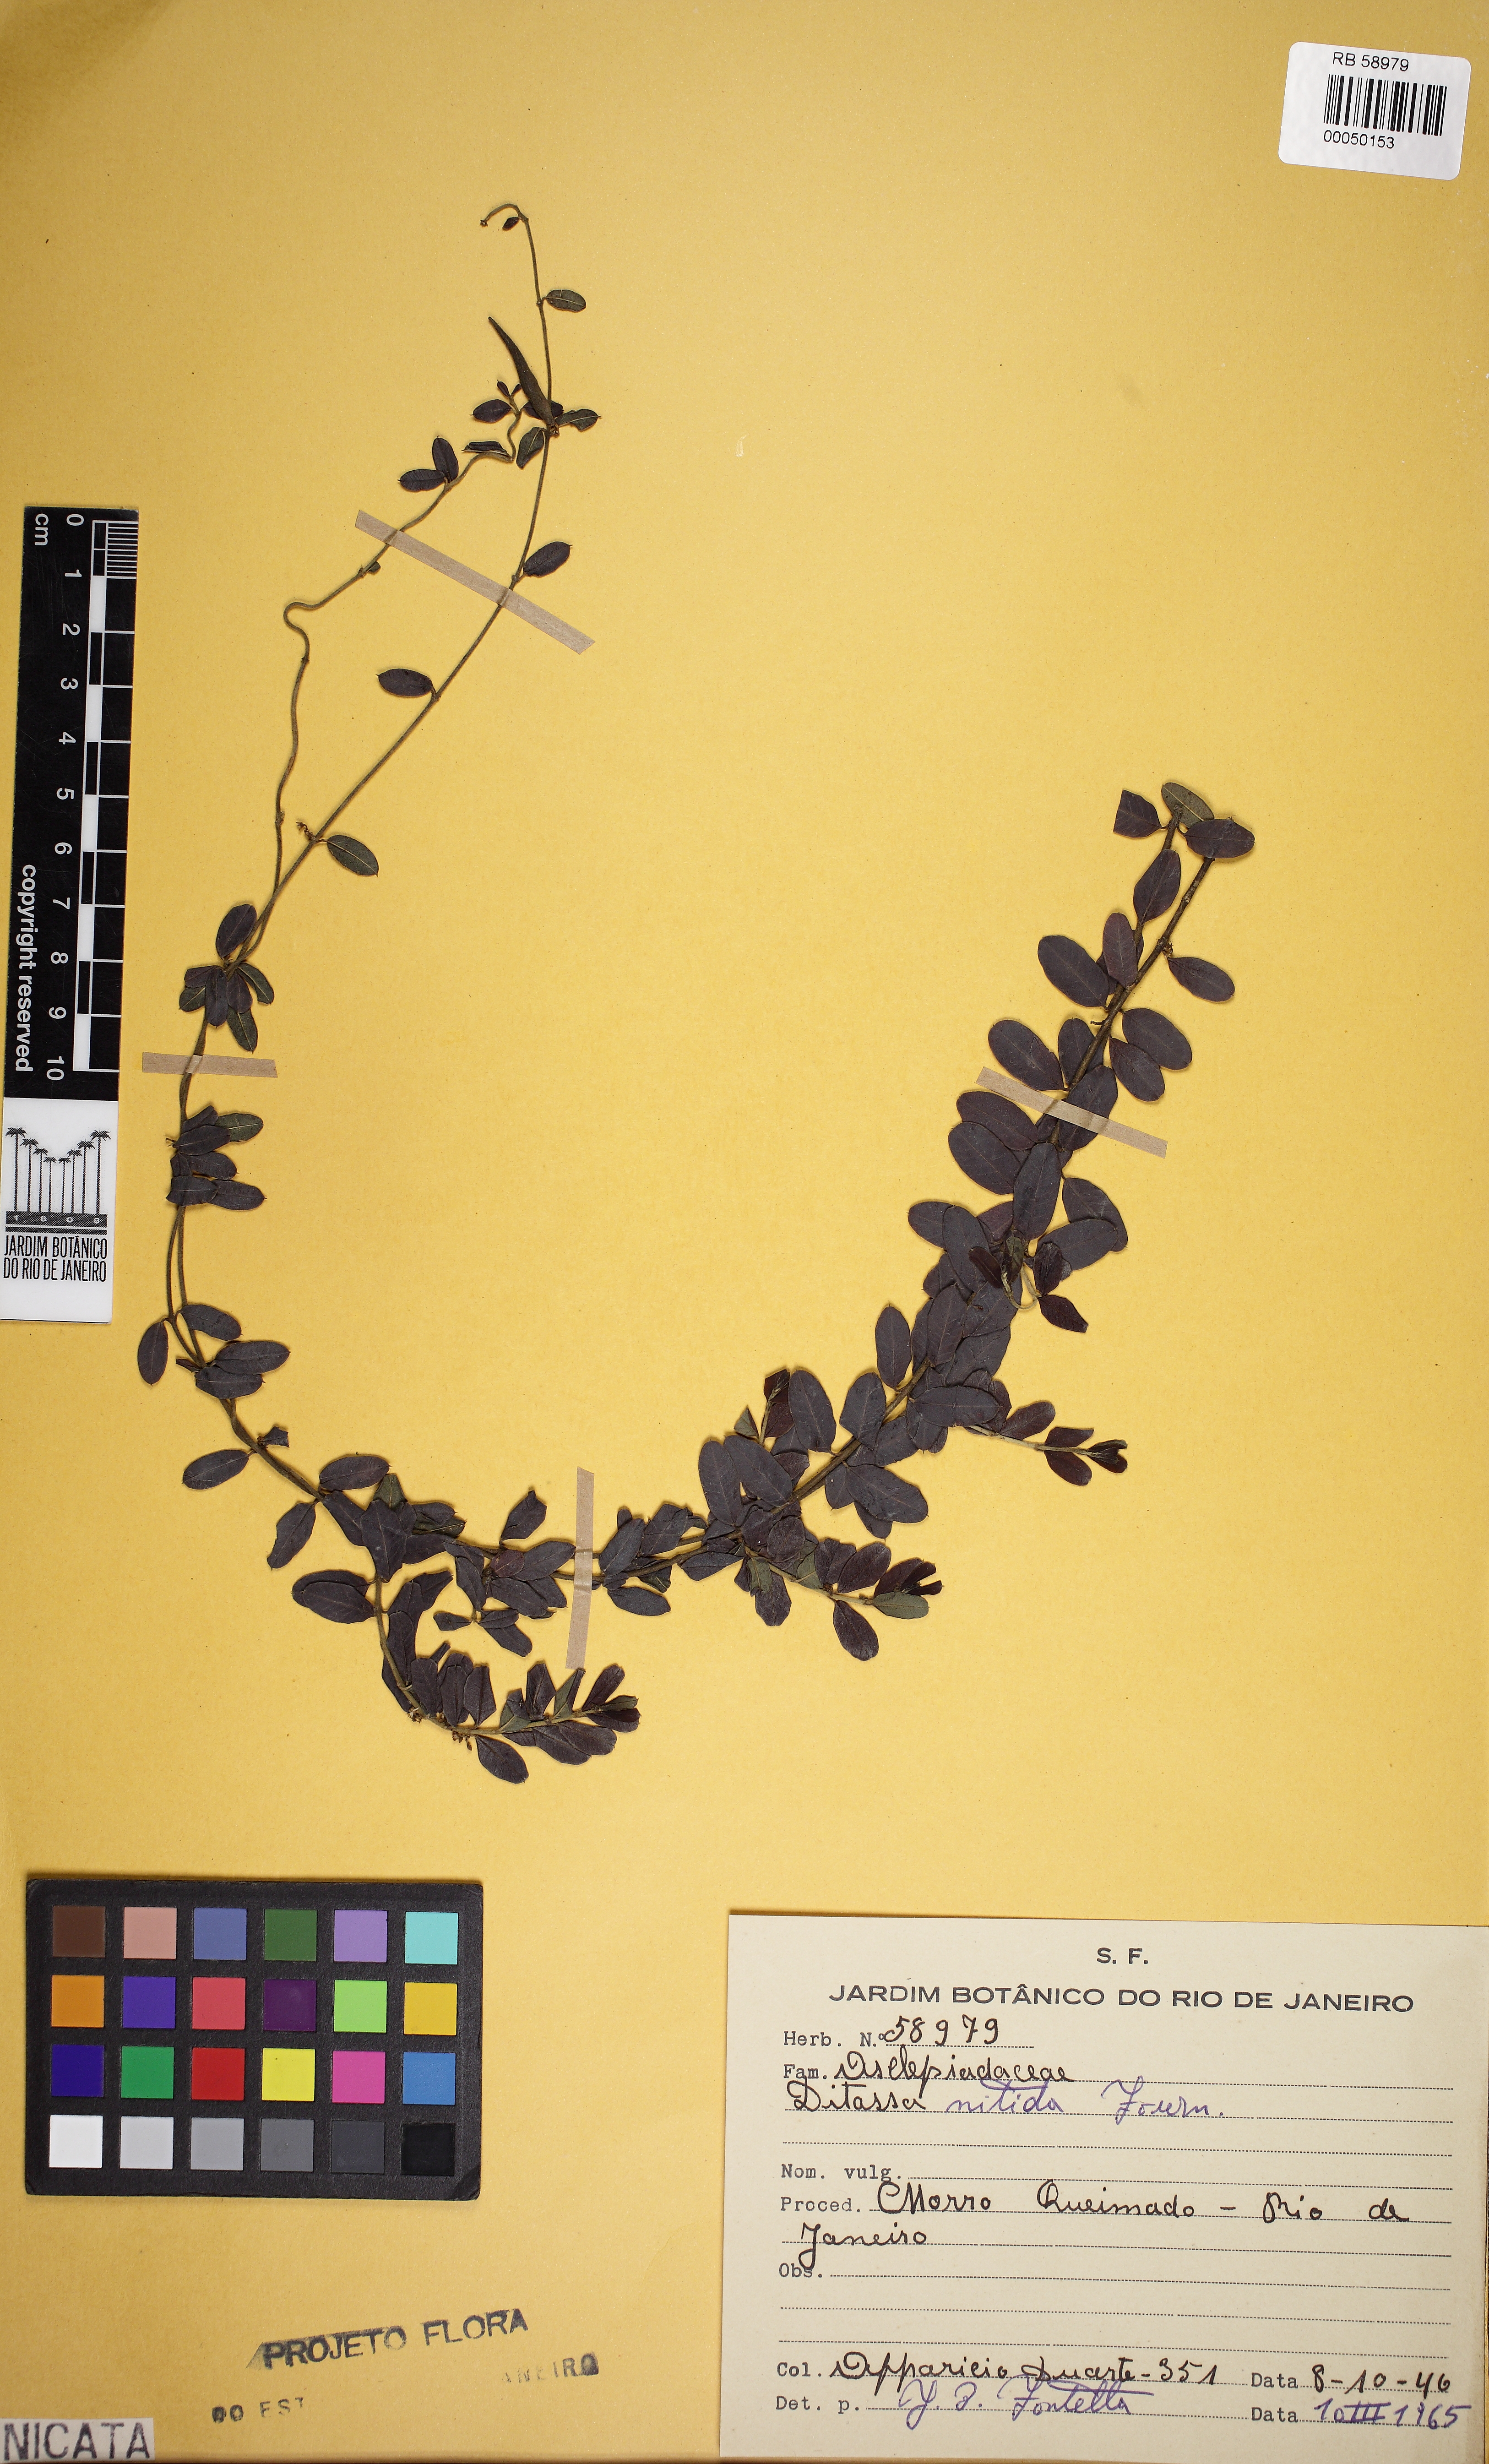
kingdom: Plantae
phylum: Tracheophyta
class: Magnoliopsida
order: Gentianales
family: Apocynaceae
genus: Ditassa
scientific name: Ditassa nitida
